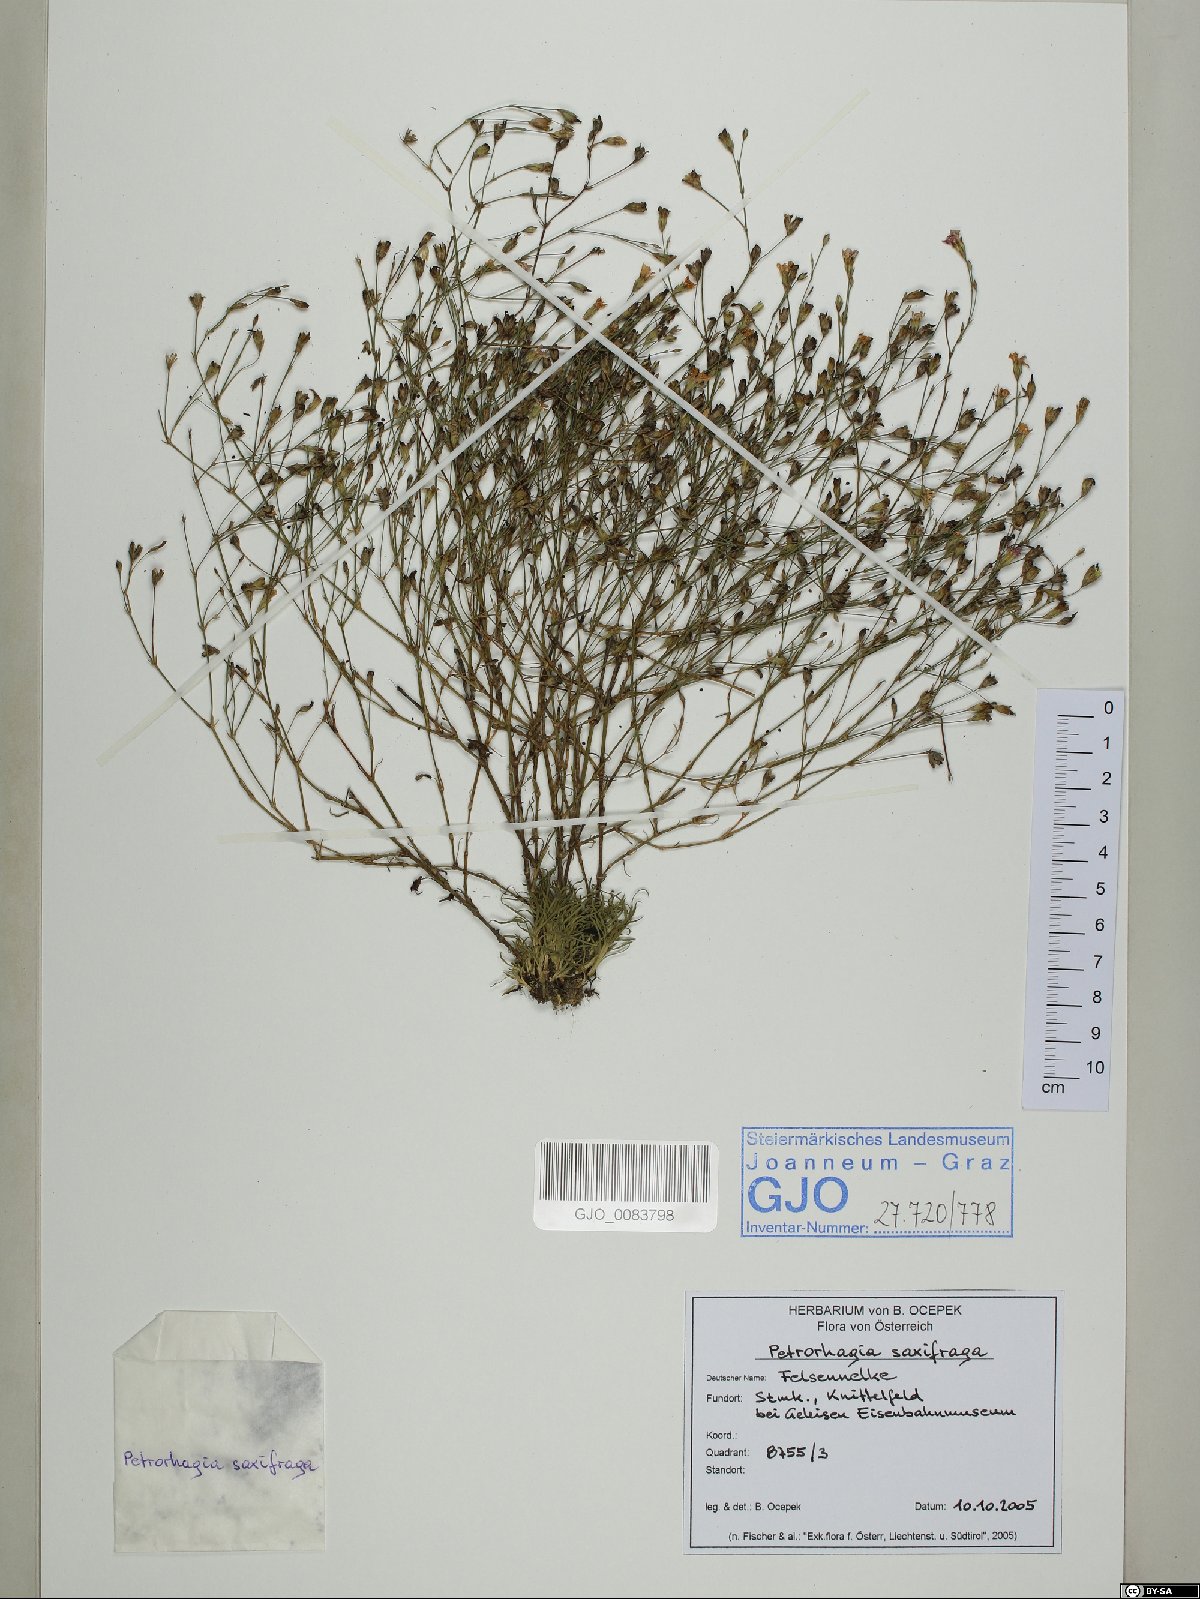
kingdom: Plantae
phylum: Tracheophyta
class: Magnoliopsida
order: Caryophyllales
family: Caryophyllaceae
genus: Petrorhagia
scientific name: Petrorhagia saxifraga
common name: Tunicflower
